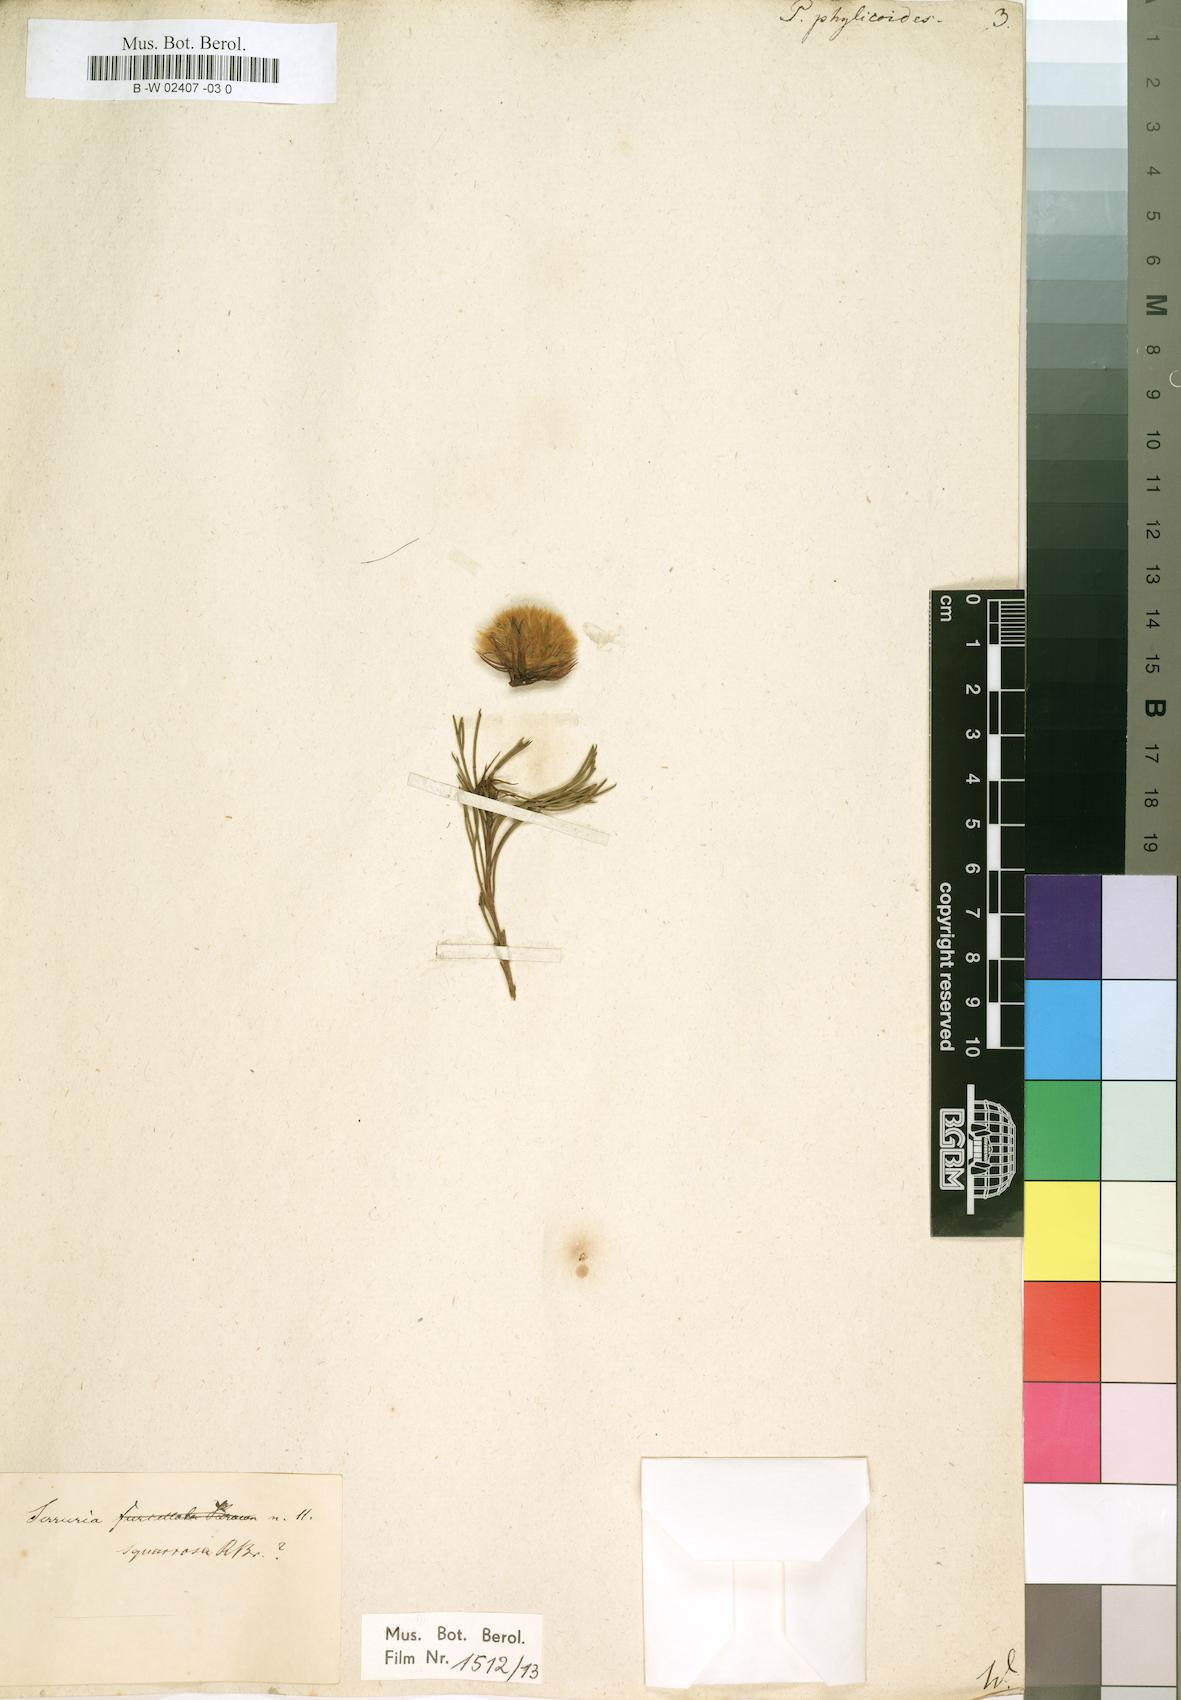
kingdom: Plantae
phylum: Tracheophyta
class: Magnoliopsida
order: Proteales
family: Proteaceae
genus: Protea
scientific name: Protea phylicoides
